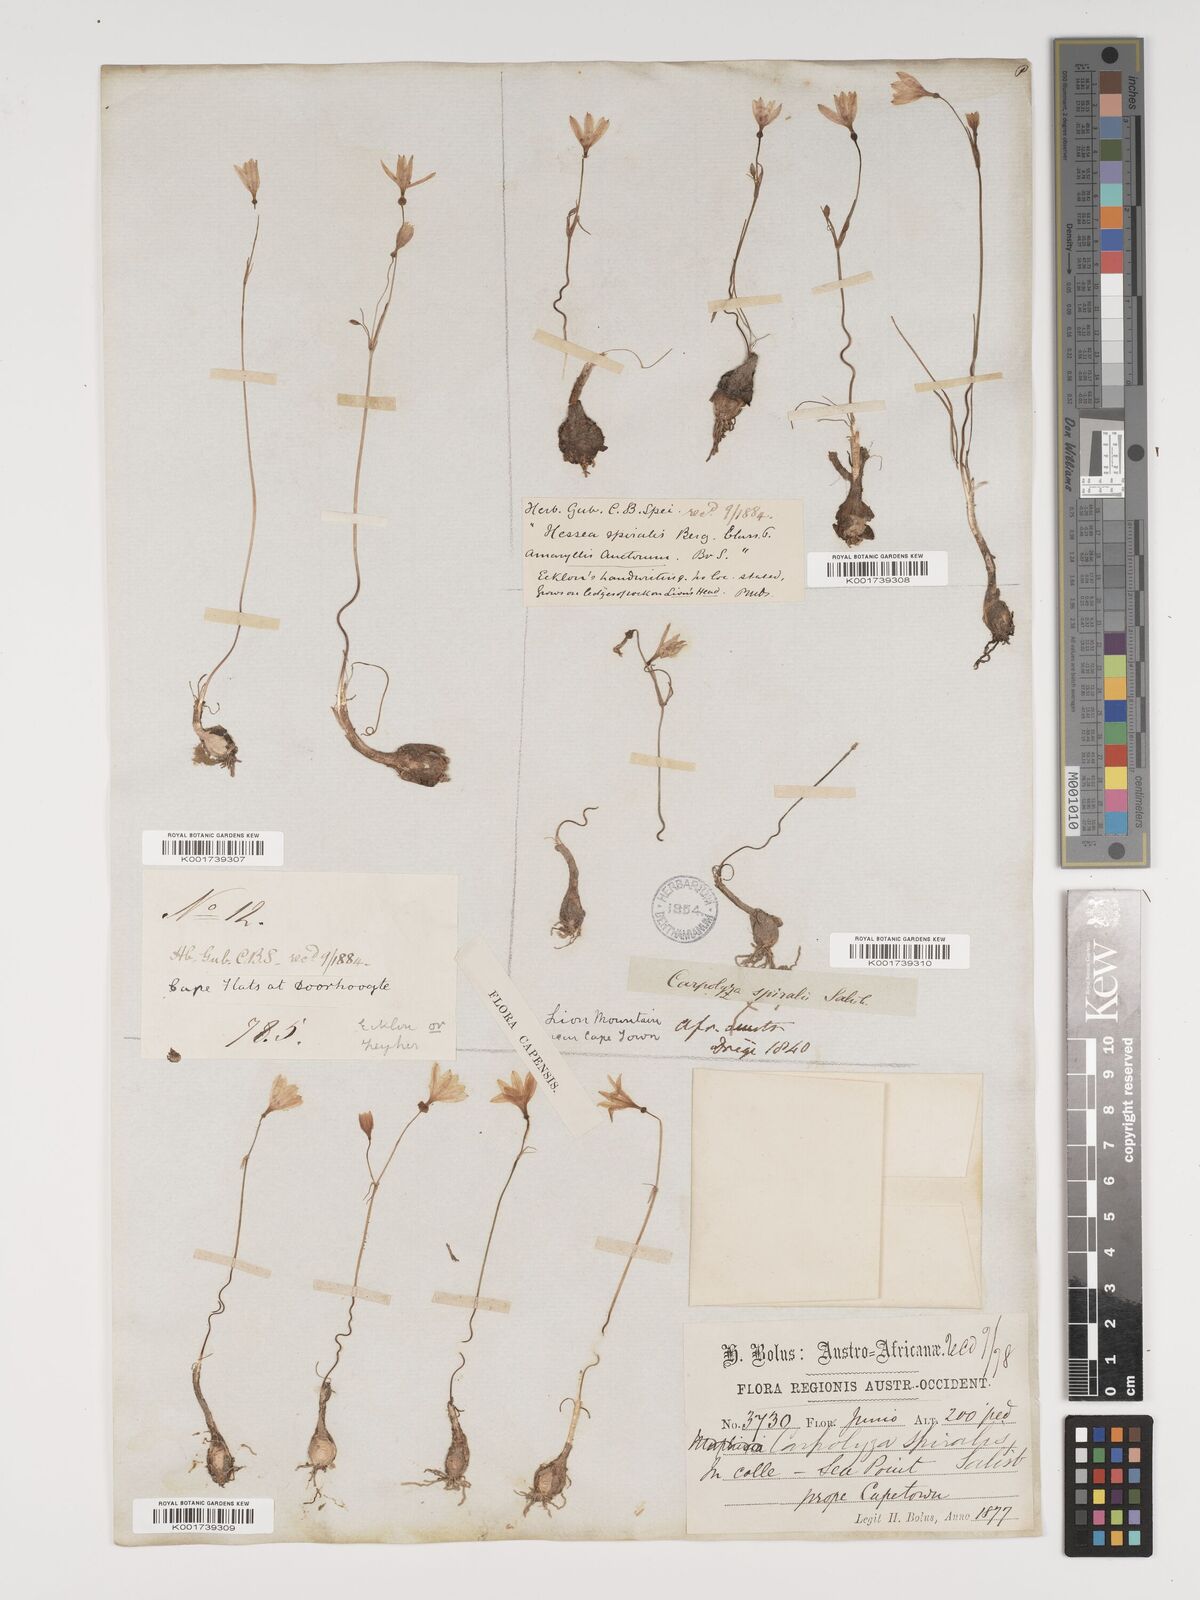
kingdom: Plantae
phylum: Tracheophyta
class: Liliopsida
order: Asparagales
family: Amaryllidaceae
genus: Strumaria
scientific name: Strumaria spiralis
